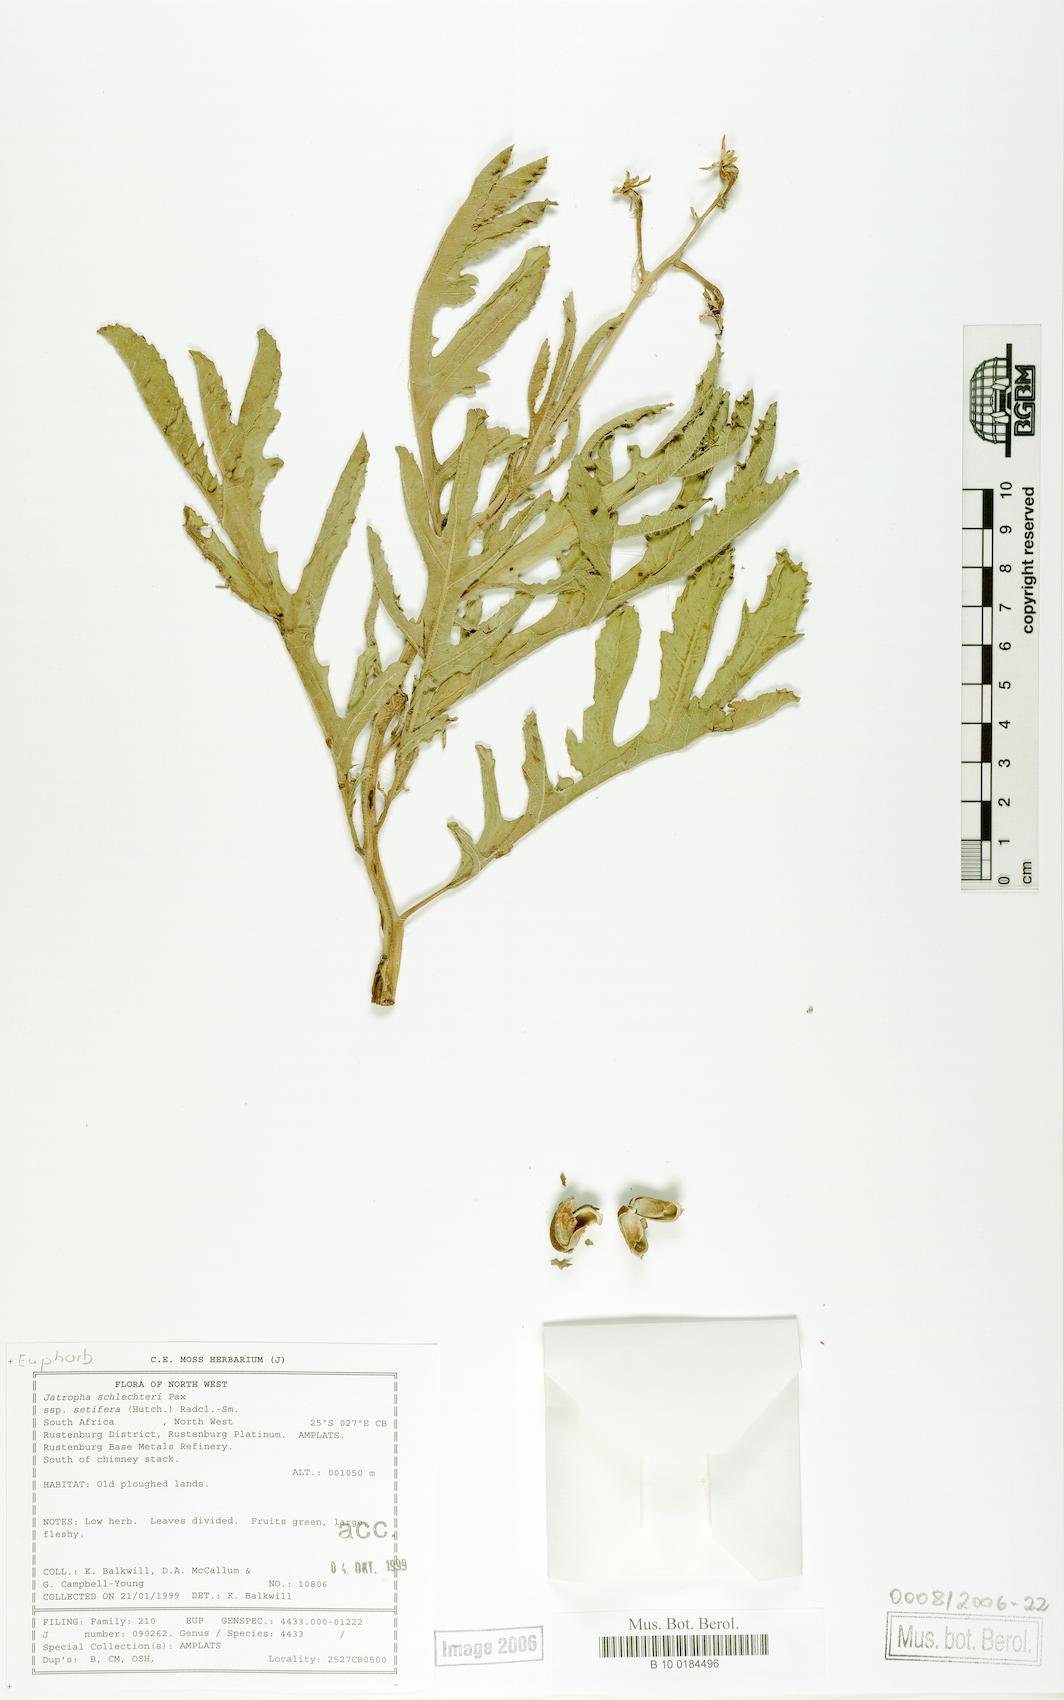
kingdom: Plantae
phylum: Tracheophyta
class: Magnoliopsida
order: Malpighiales
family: Euphorbiaceae
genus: Jatropha
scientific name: Jatropha schlechteri
